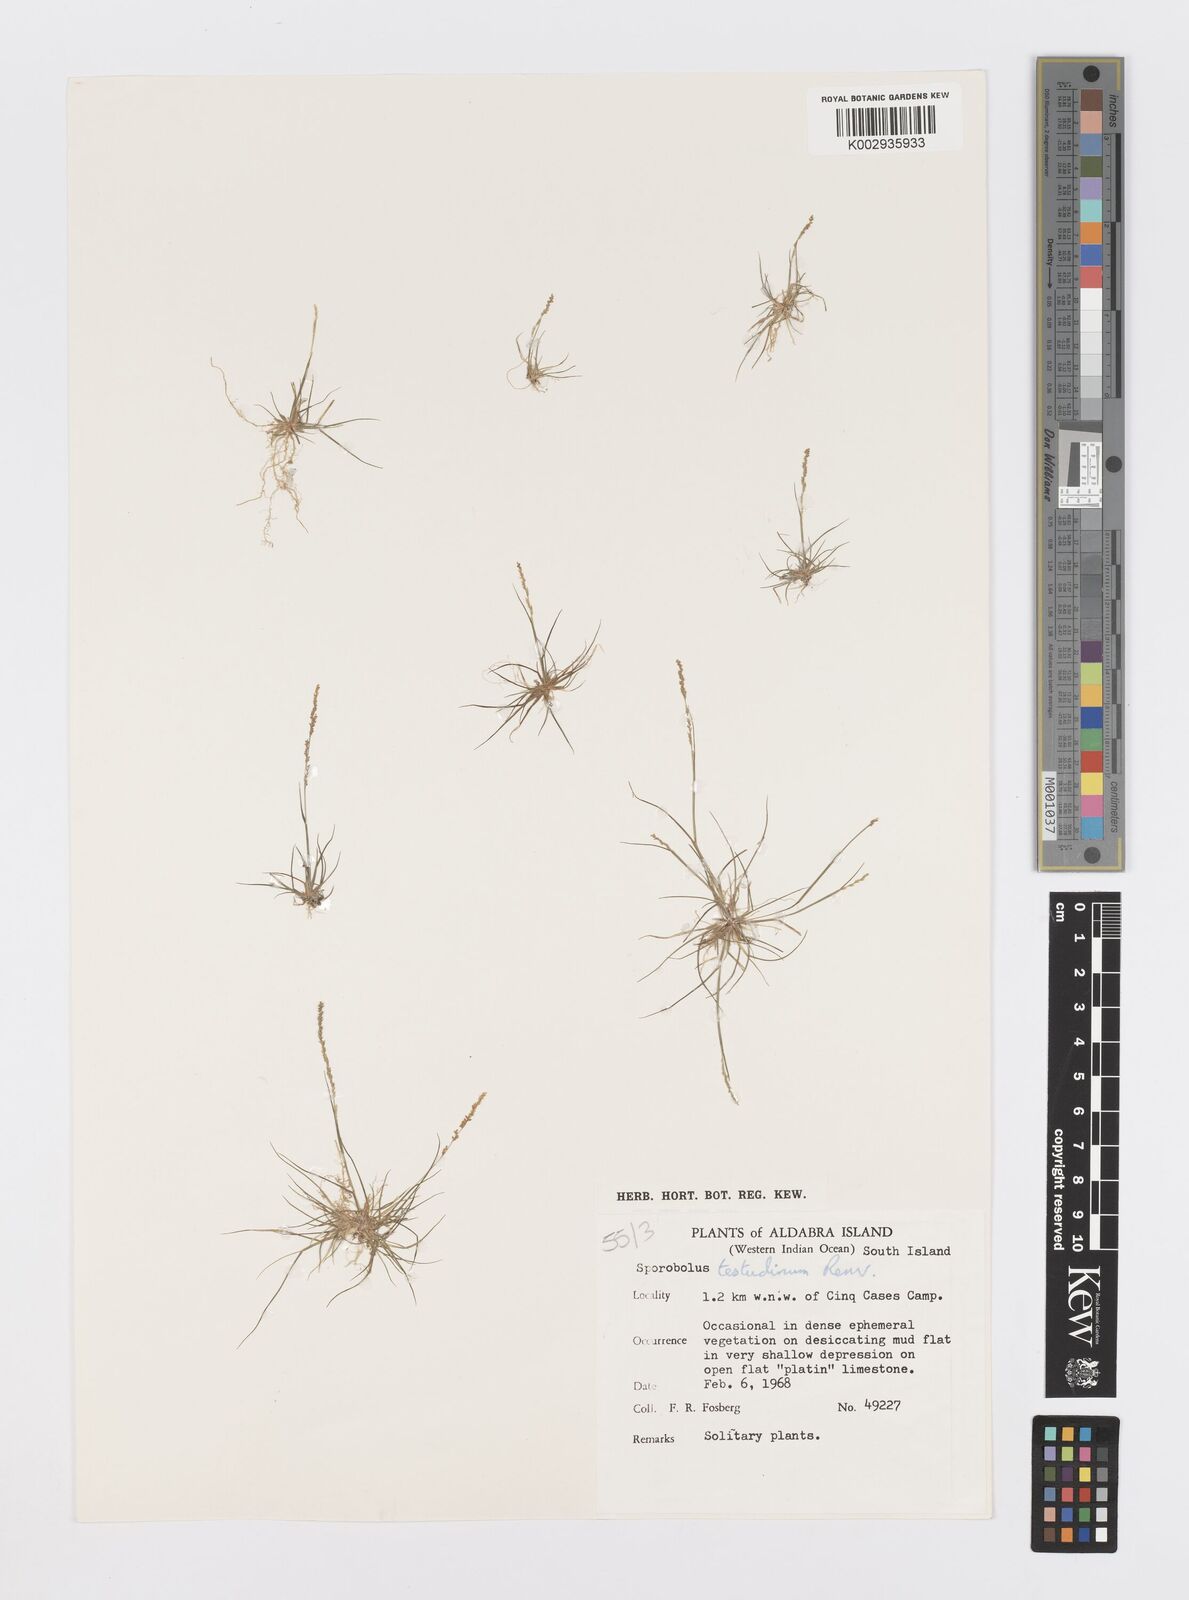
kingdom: Plantae
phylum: Tracheophyta
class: Liliopsida
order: Poales
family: Poaceae
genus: Sporobolus
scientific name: Sporobolus testudinum
